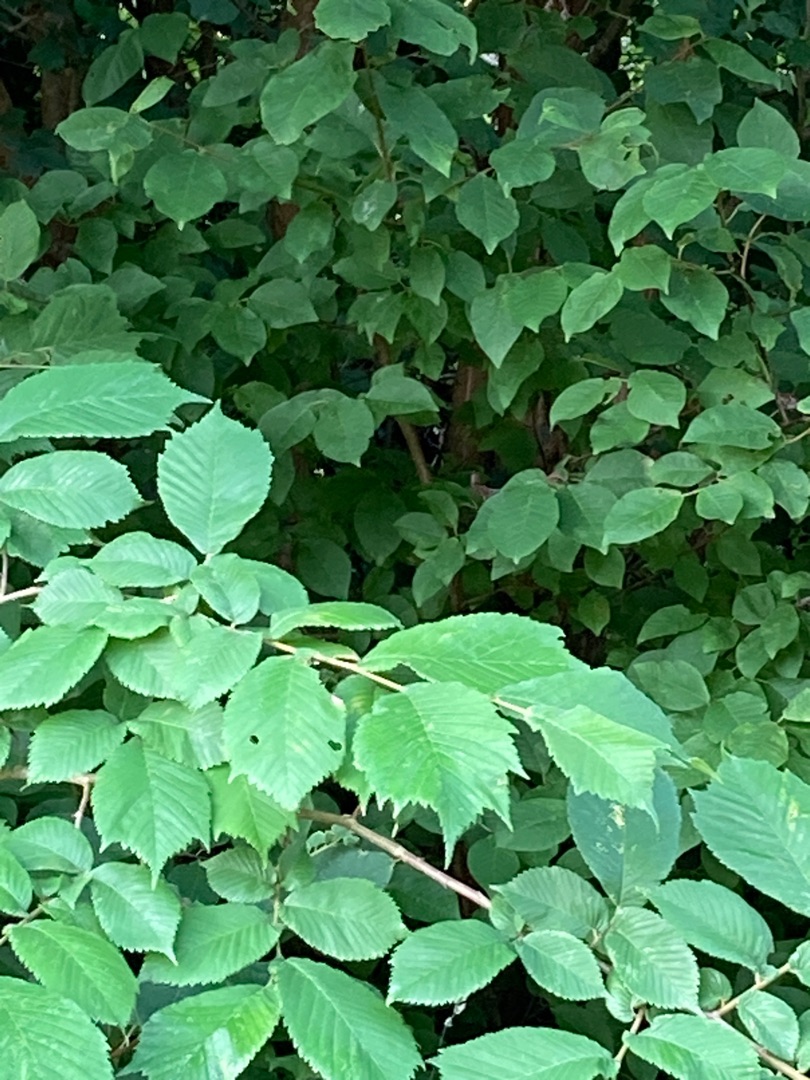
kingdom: Plantae
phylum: Tracheophyta
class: Magnoliopsida
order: Rosales
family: Ulmaceae
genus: Ulmus
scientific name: Ulmus glabra
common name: Skov-elm/storbladet elm
